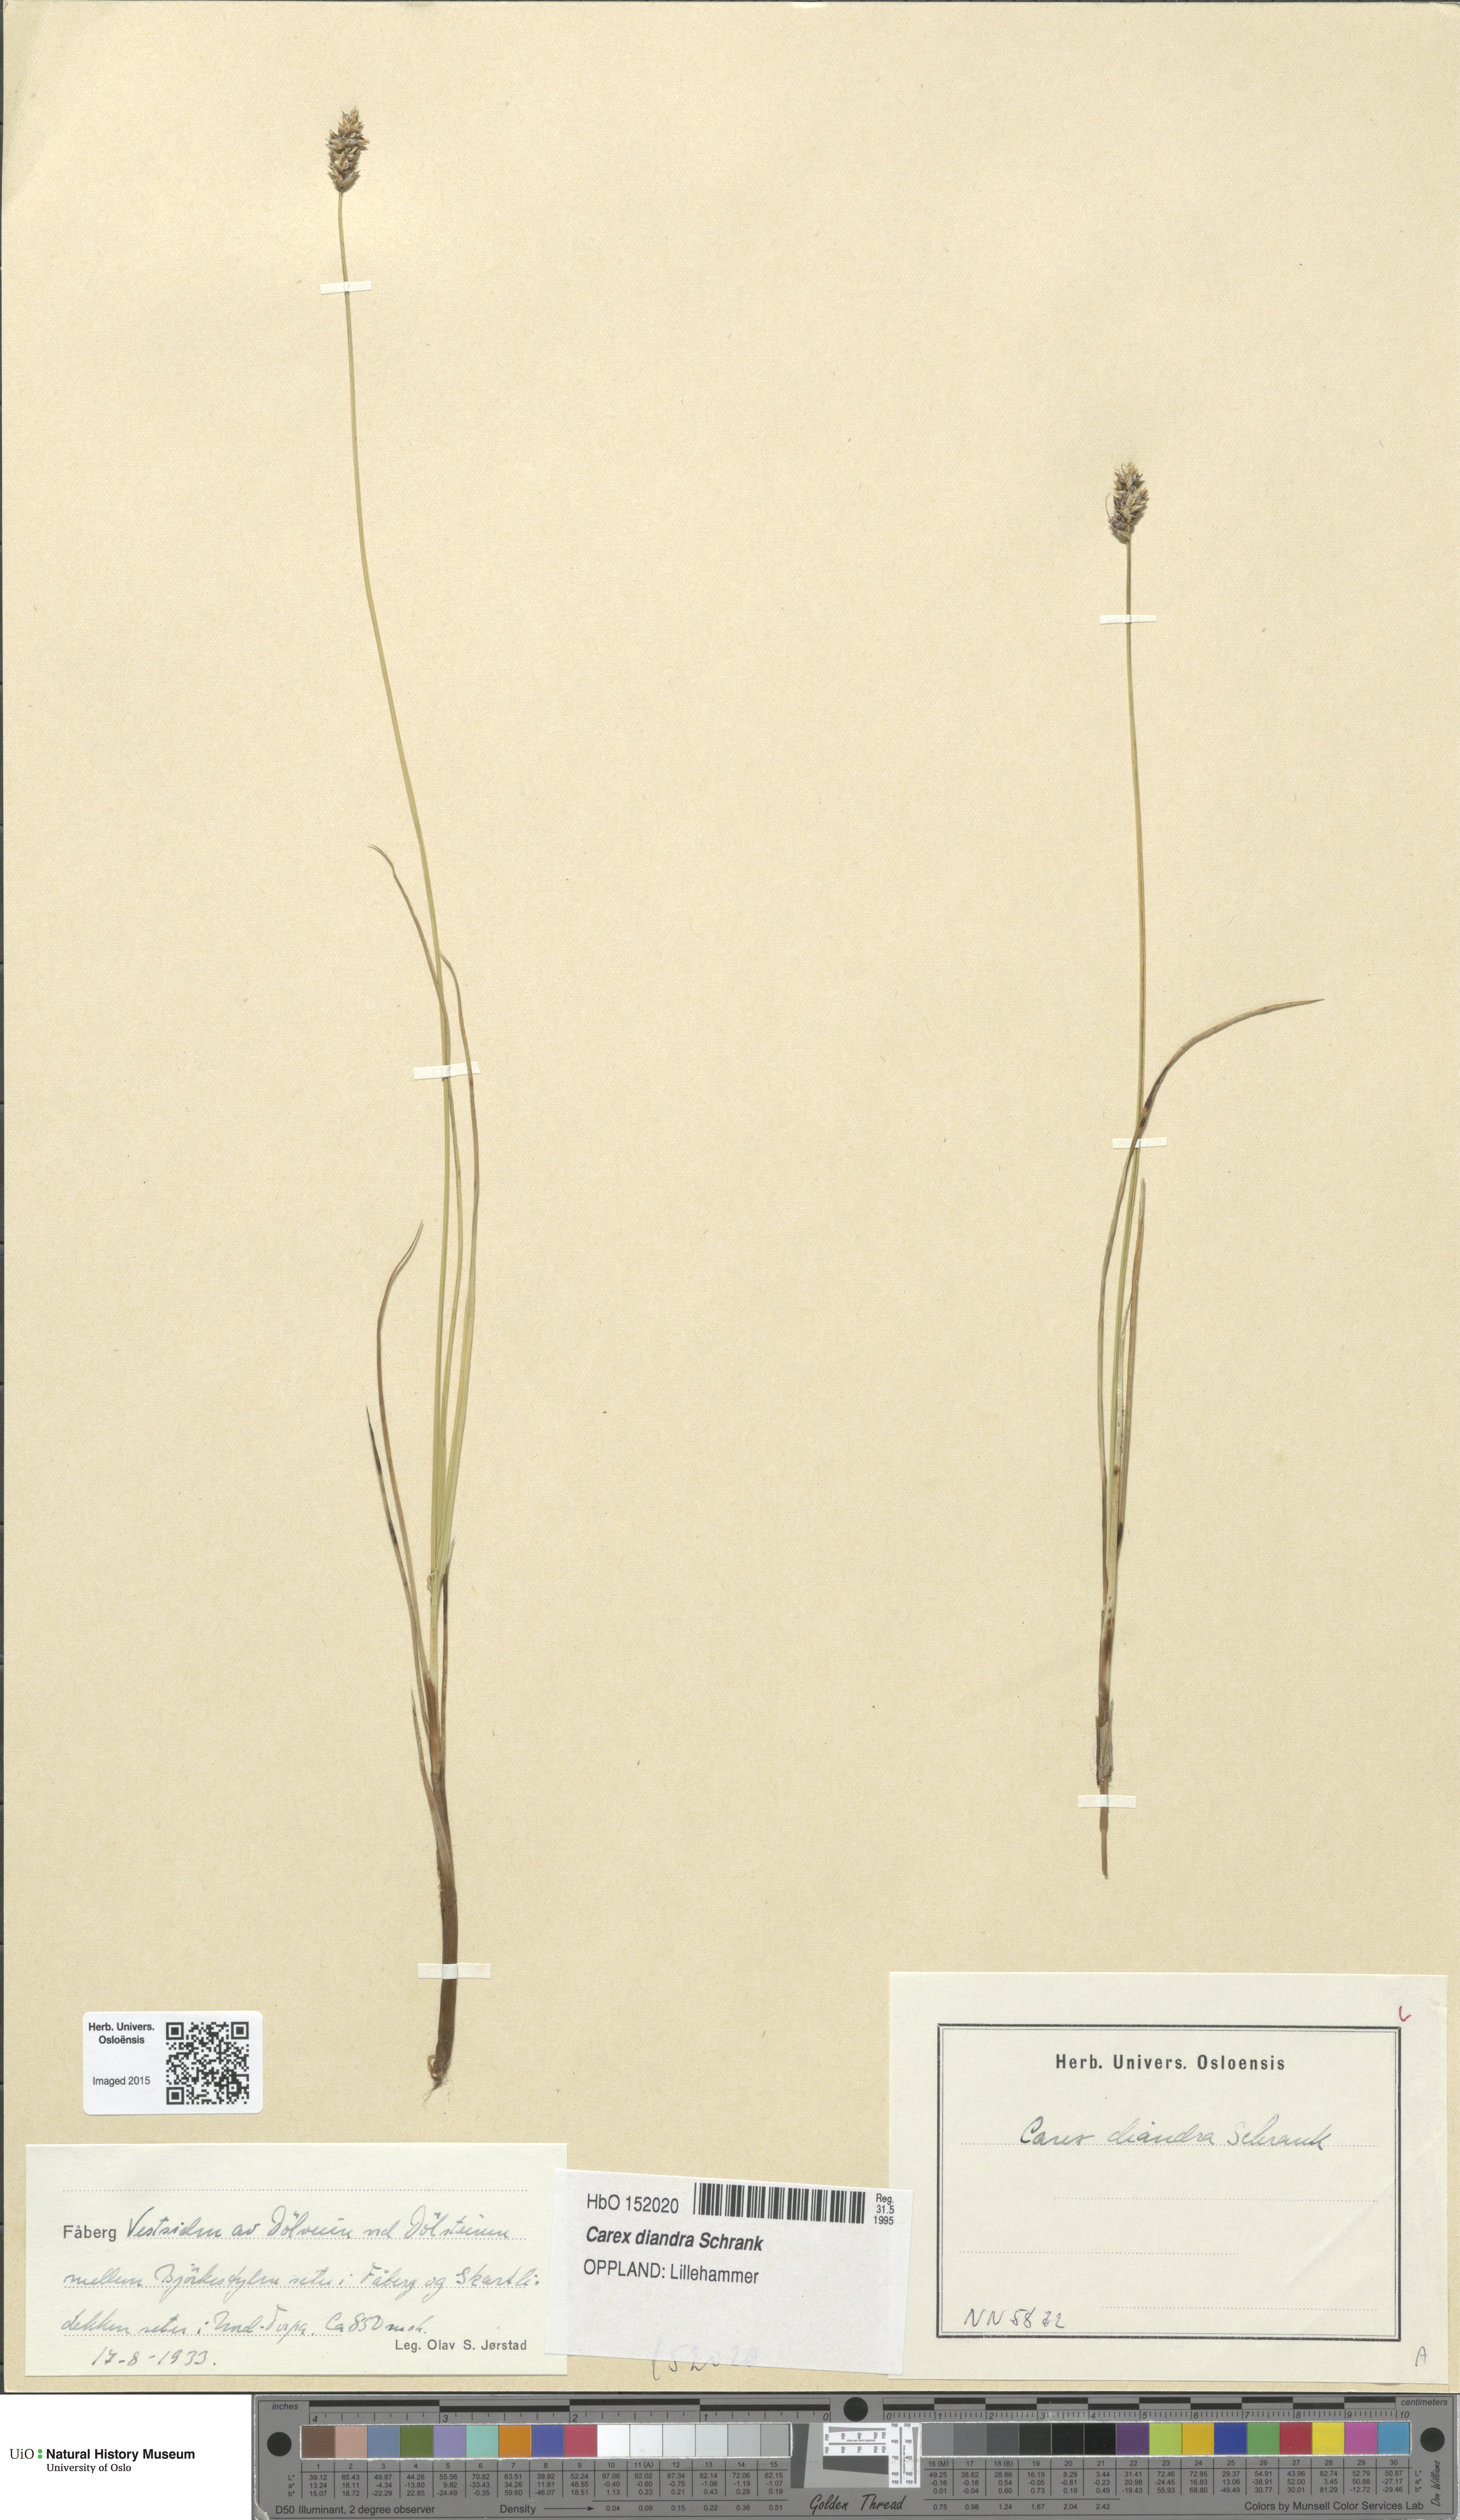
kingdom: Plantae
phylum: Tracheophyta
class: Liliopsida
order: Poales
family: Cyperaceae
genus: Carex
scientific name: Carex diandra
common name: Lesser tussock-sedge
